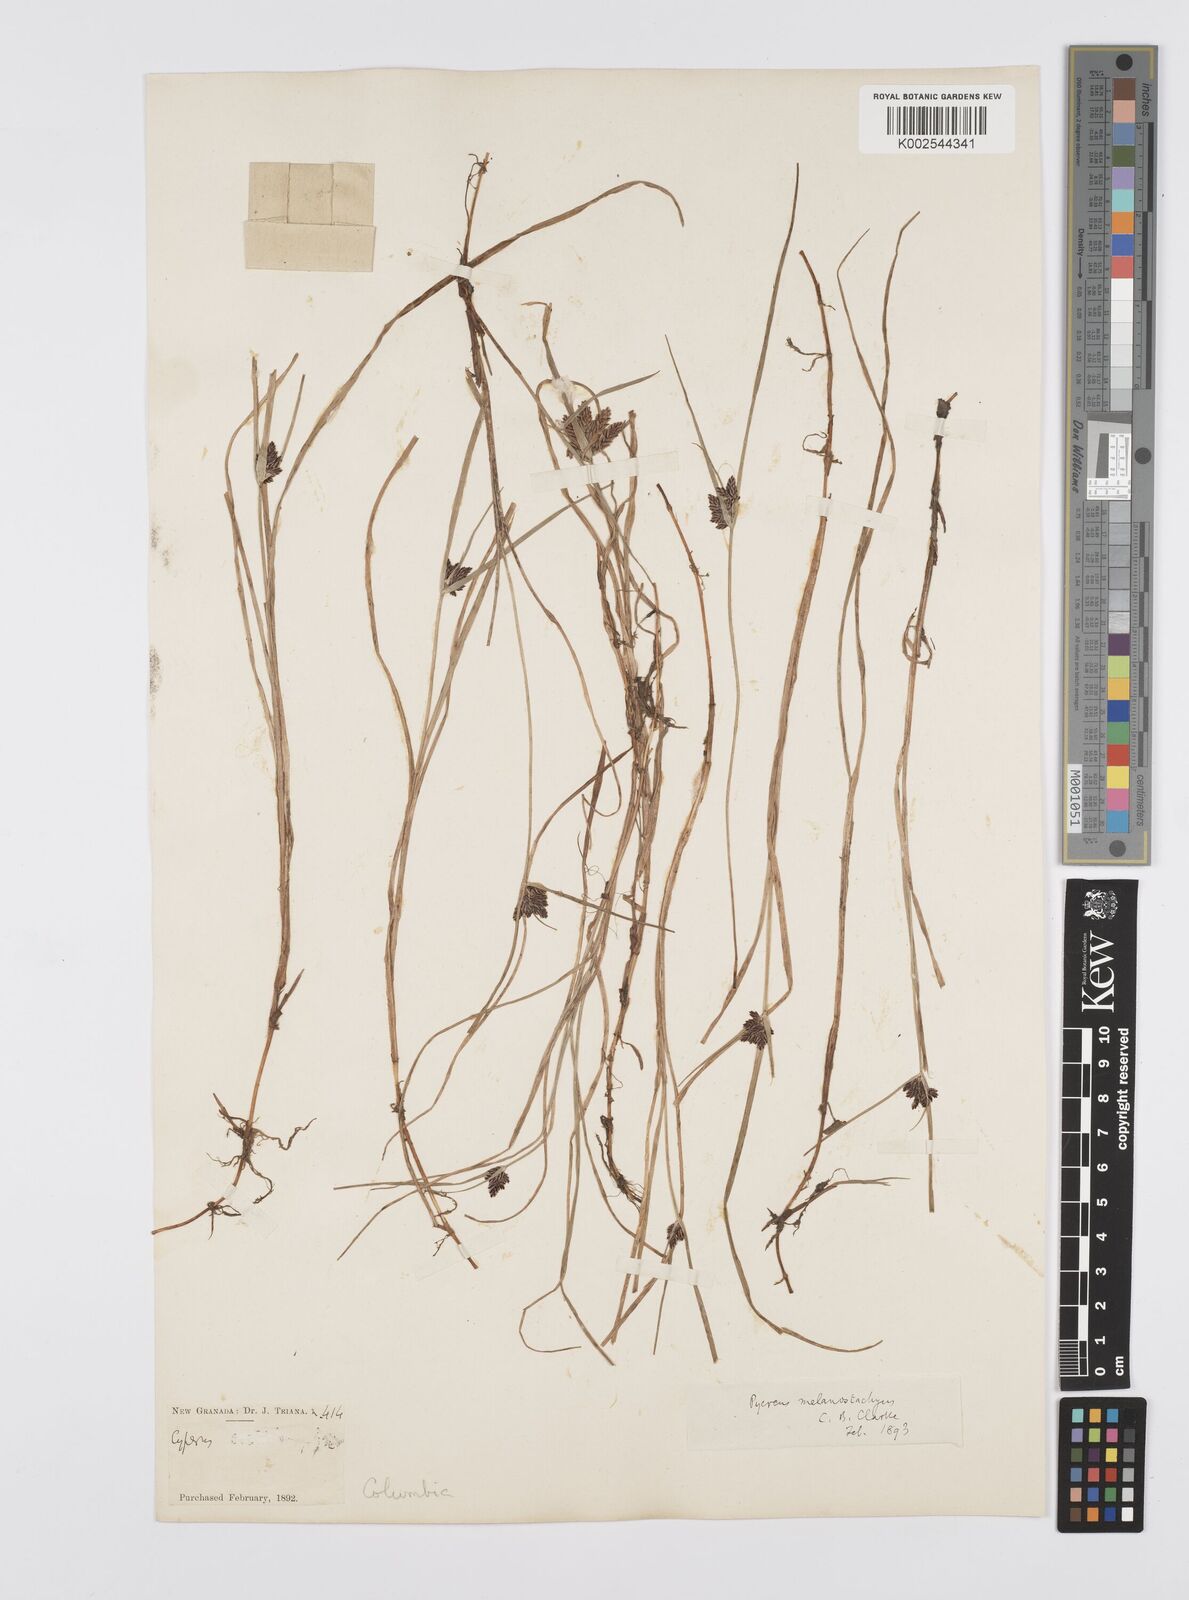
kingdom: Plantae
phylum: Tracheophyta
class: Liliopsida
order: Poales
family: Cyperaceae
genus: Cyperus
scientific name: Cyperus melanostachyus
